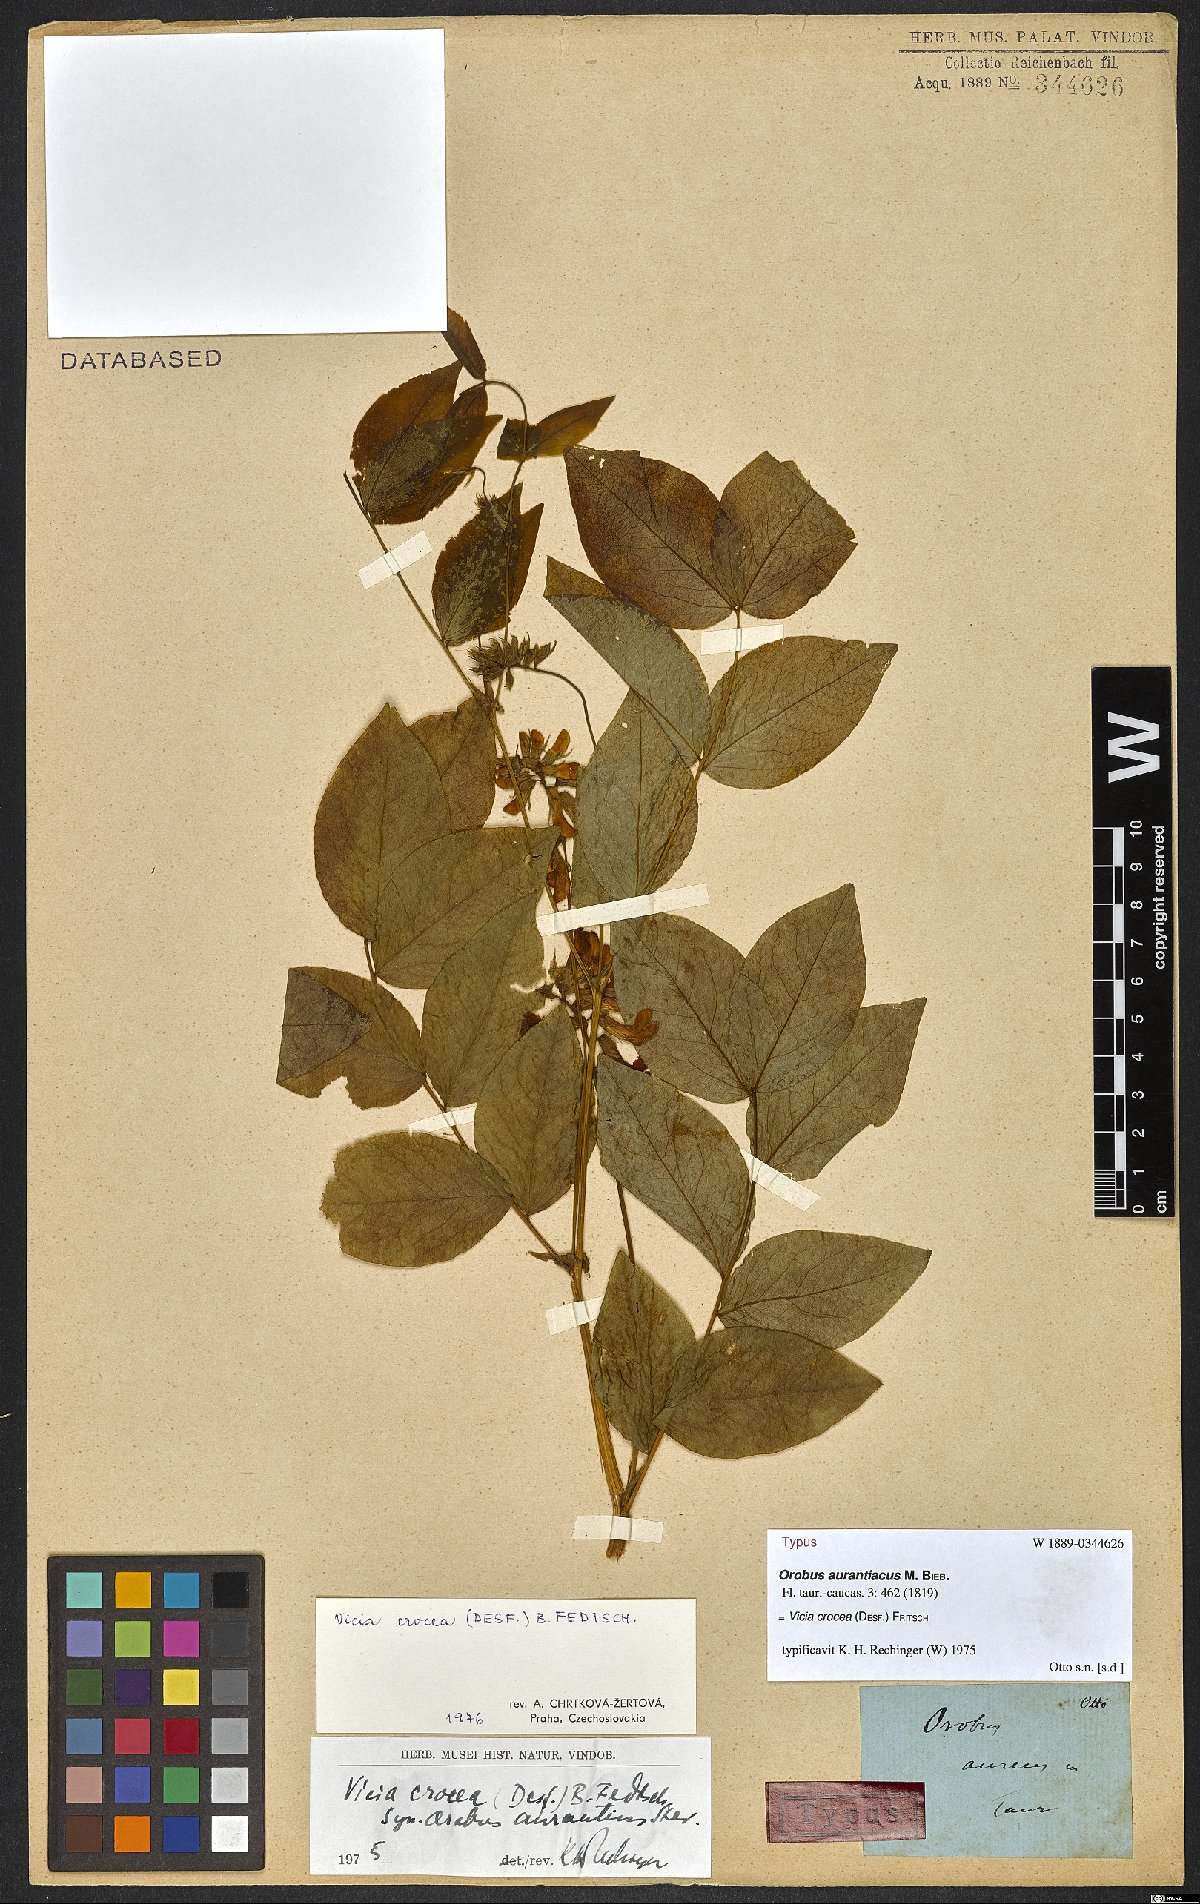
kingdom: Plantae
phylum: Tracheophyta
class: Magnoliopsida
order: Fabales
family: Fabaceae
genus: Vicia
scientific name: Vicia crocea
